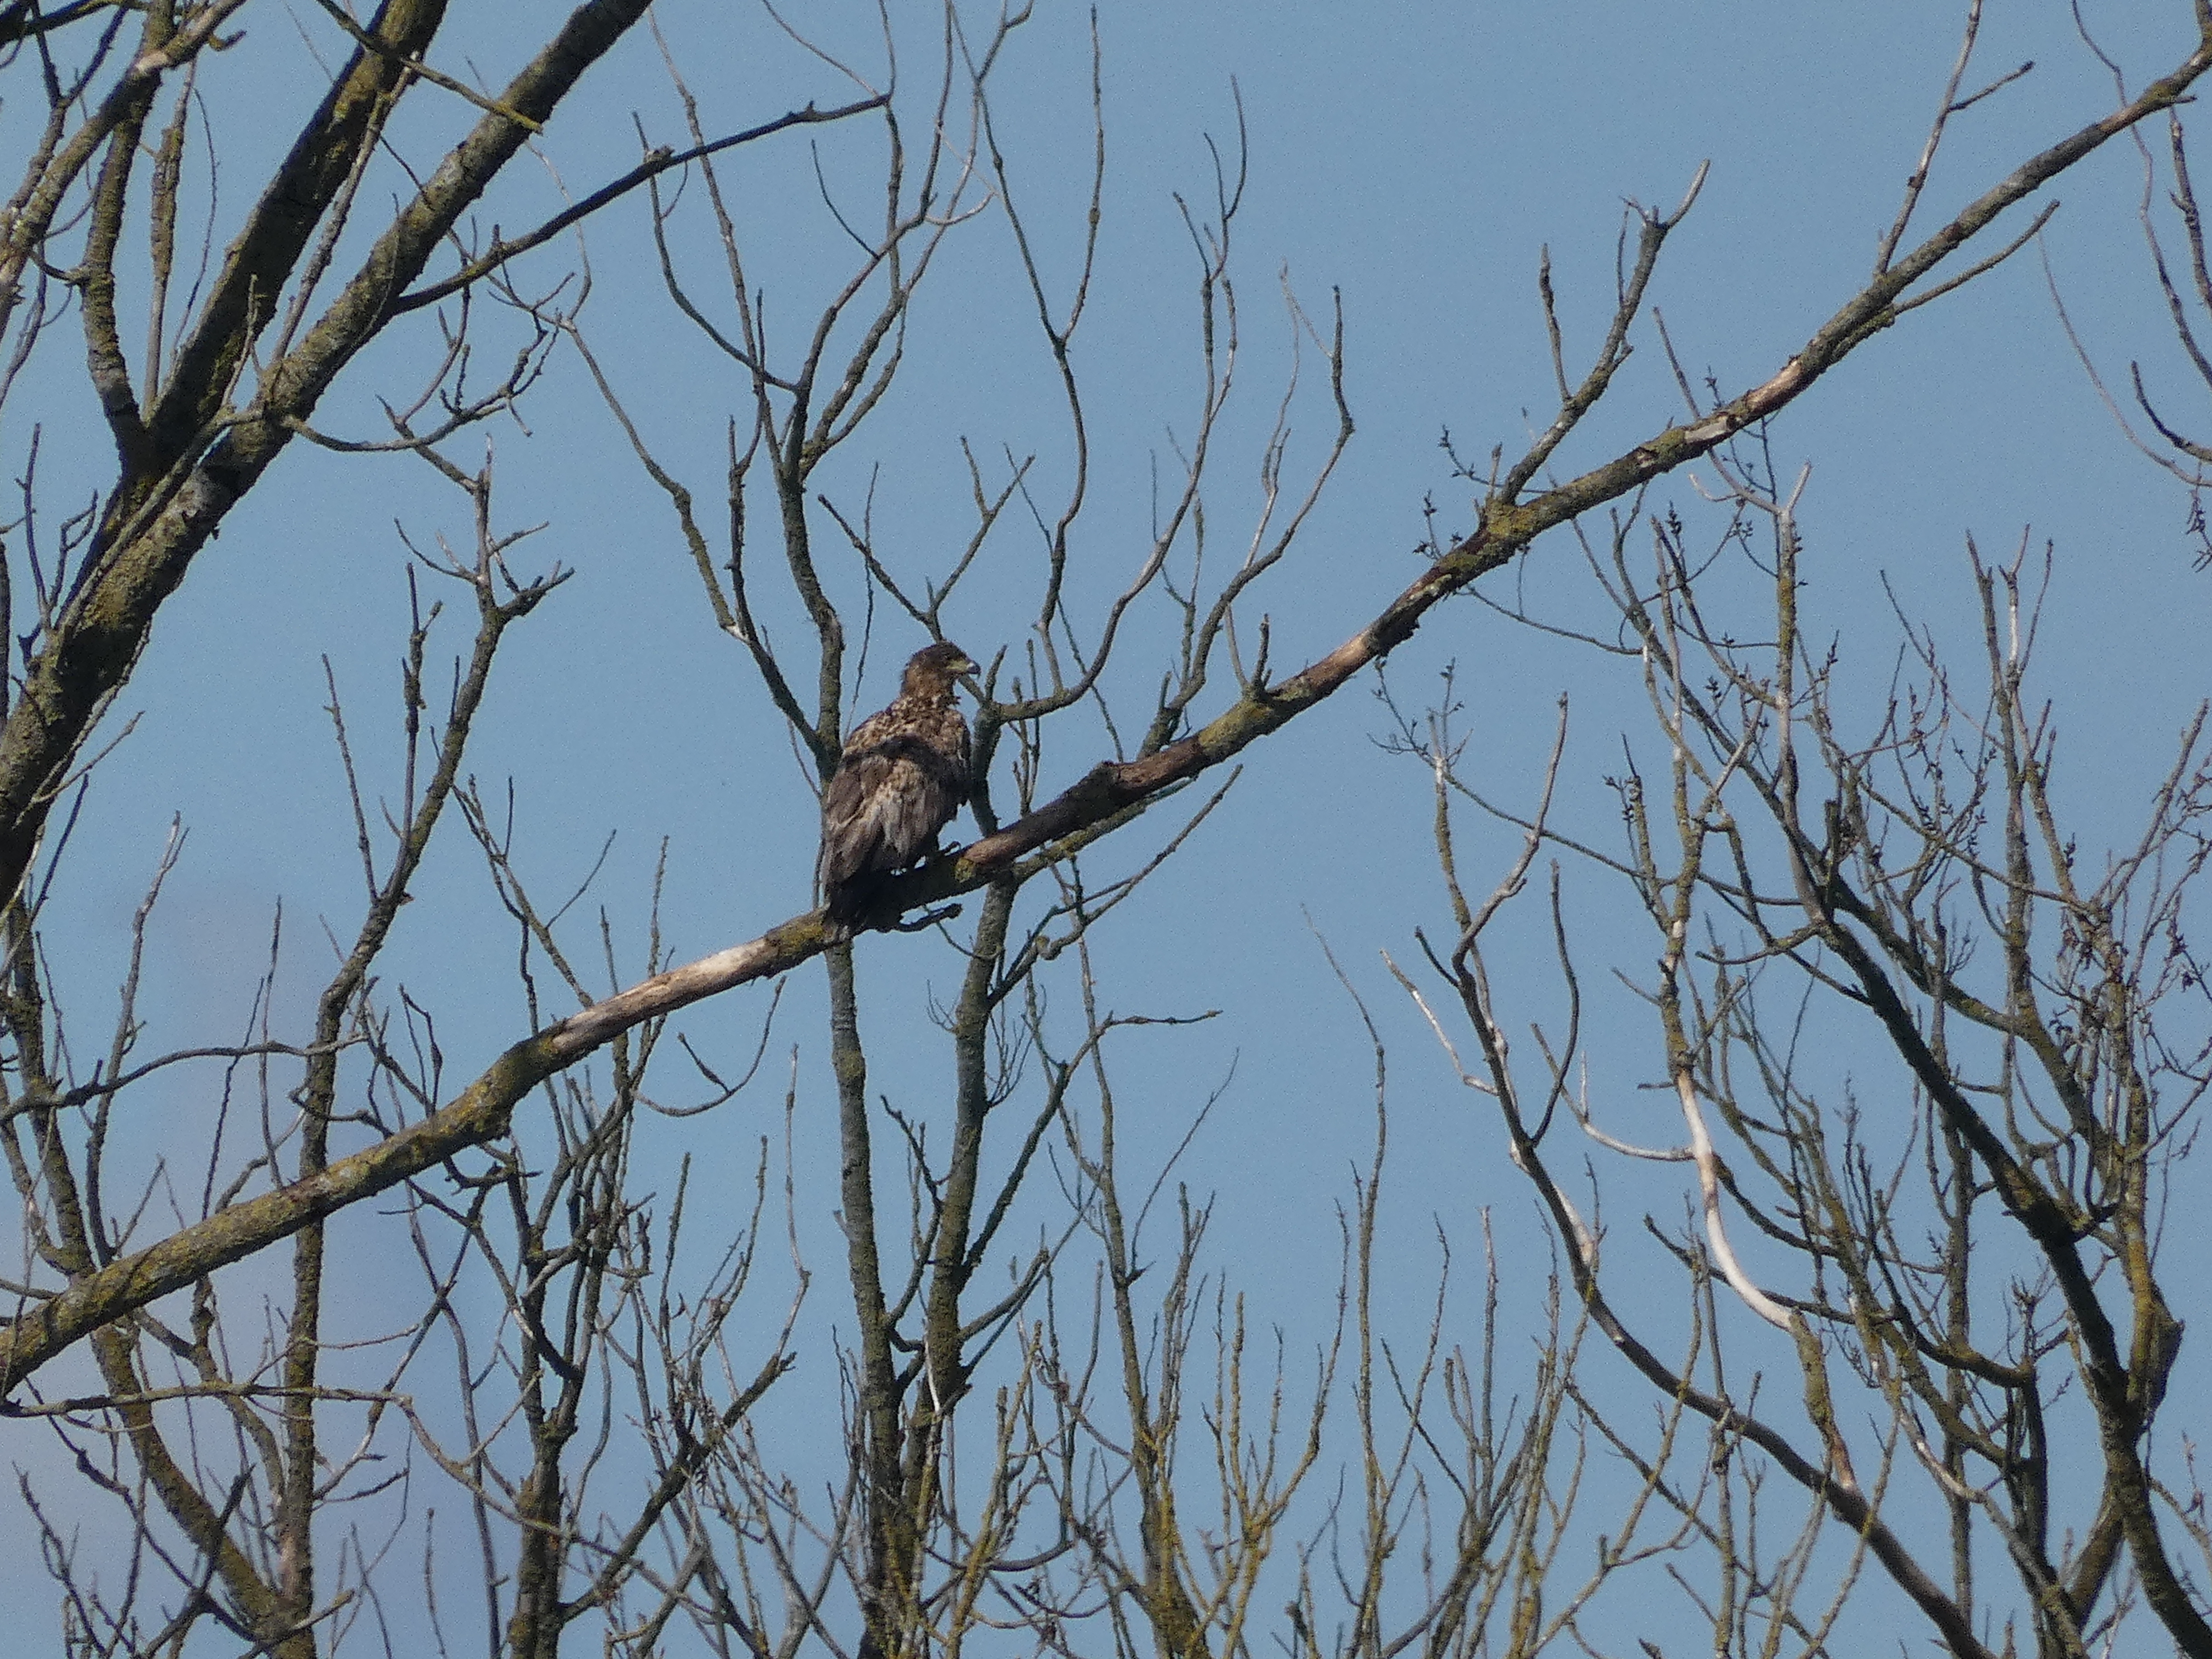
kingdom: Animalia
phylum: Chordata
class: Aves
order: Accipitriformes
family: Accipitridae
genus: Haliaeetus
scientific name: Haliaeetus albicilla
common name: Havørn
